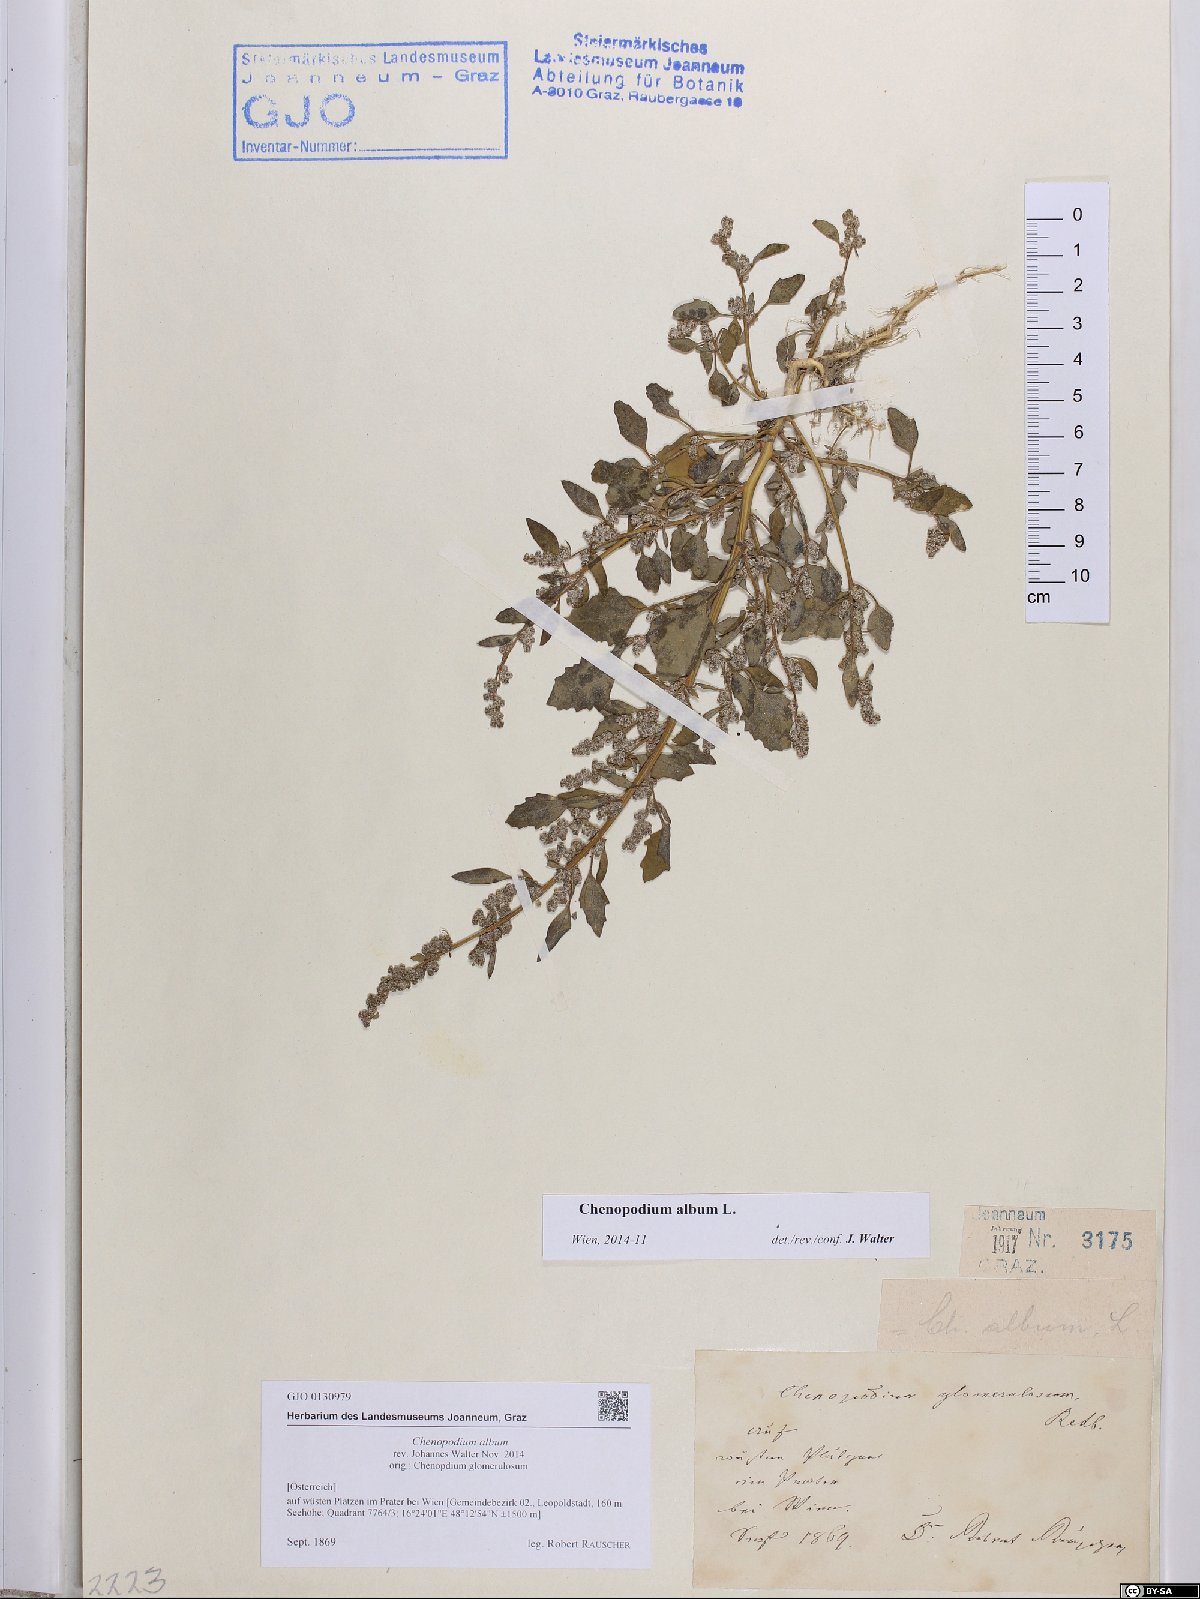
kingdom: Plantae
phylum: Tracheophyta
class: Magnoliopsida
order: Caryophyllales
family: Amaranthaceae
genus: Chenopodium
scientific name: Chenopodium album
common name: Fat-hen
